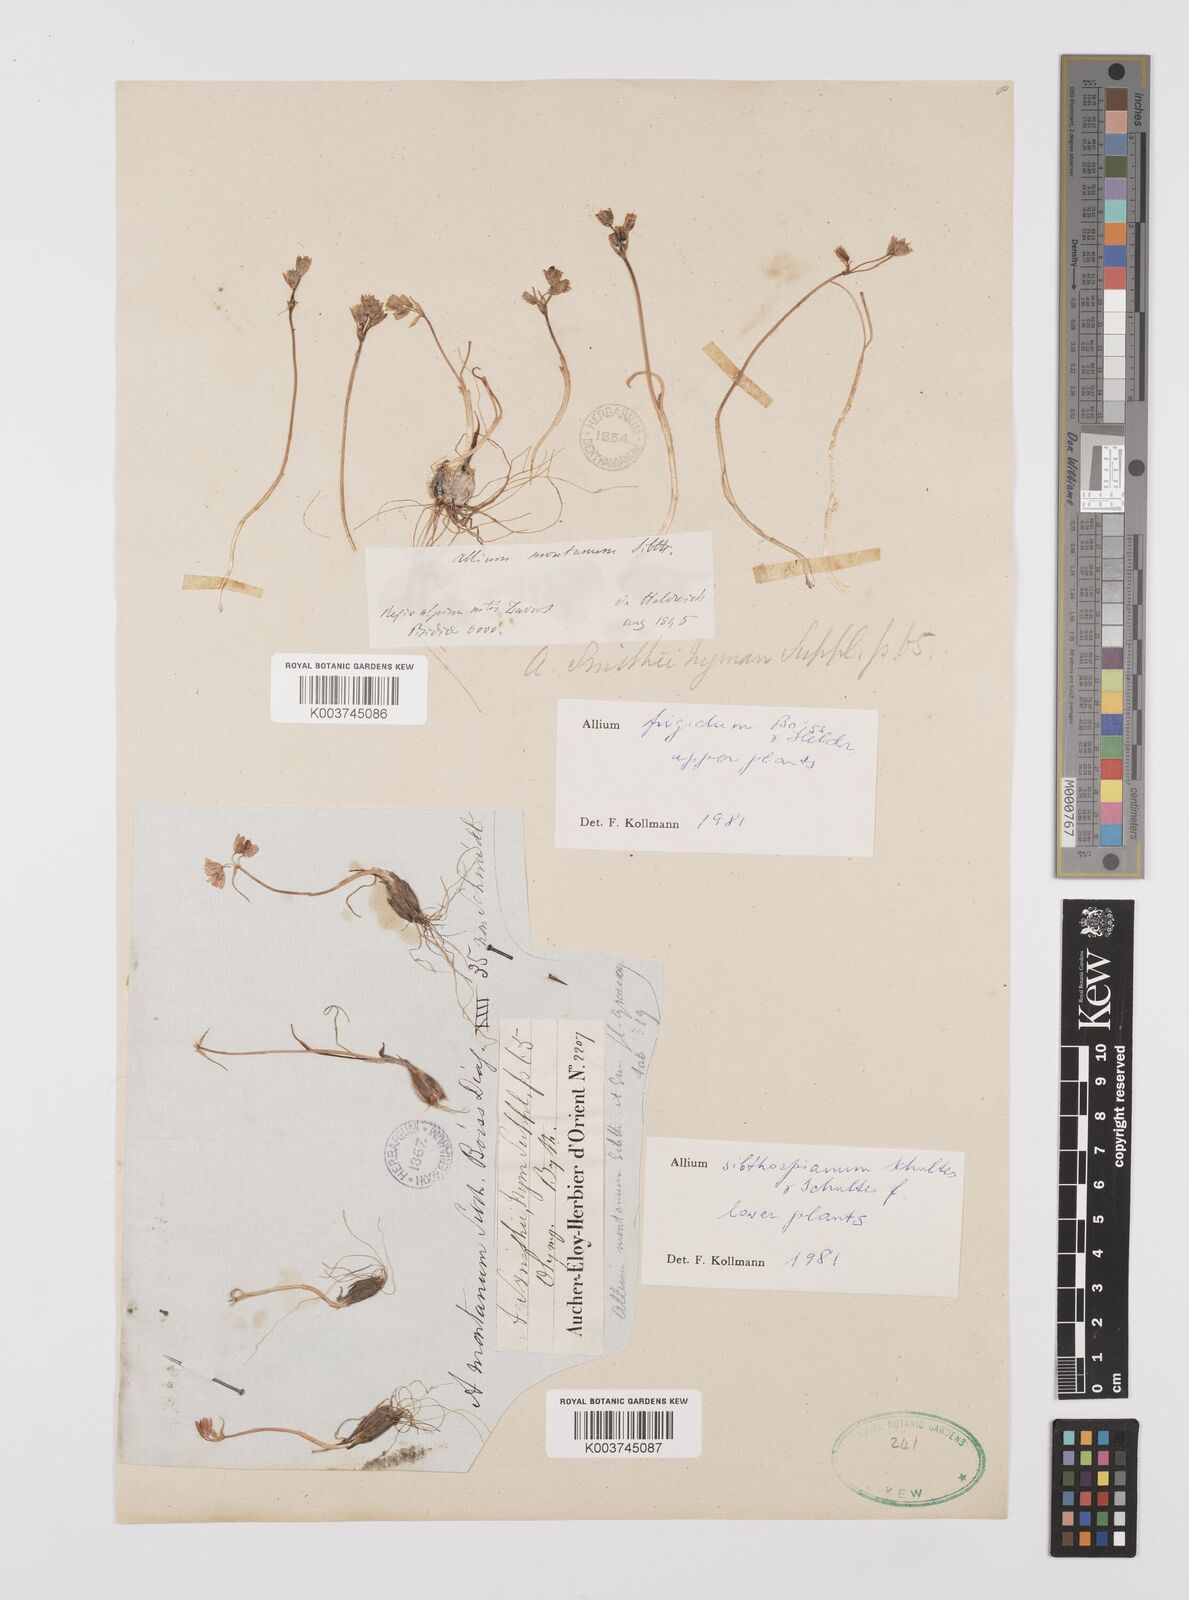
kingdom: Plantae
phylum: Tracheophyta
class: Liliopsida
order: Asparagales
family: Amaryllidaceae
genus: Allium
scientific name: Allium sibthorpianum
